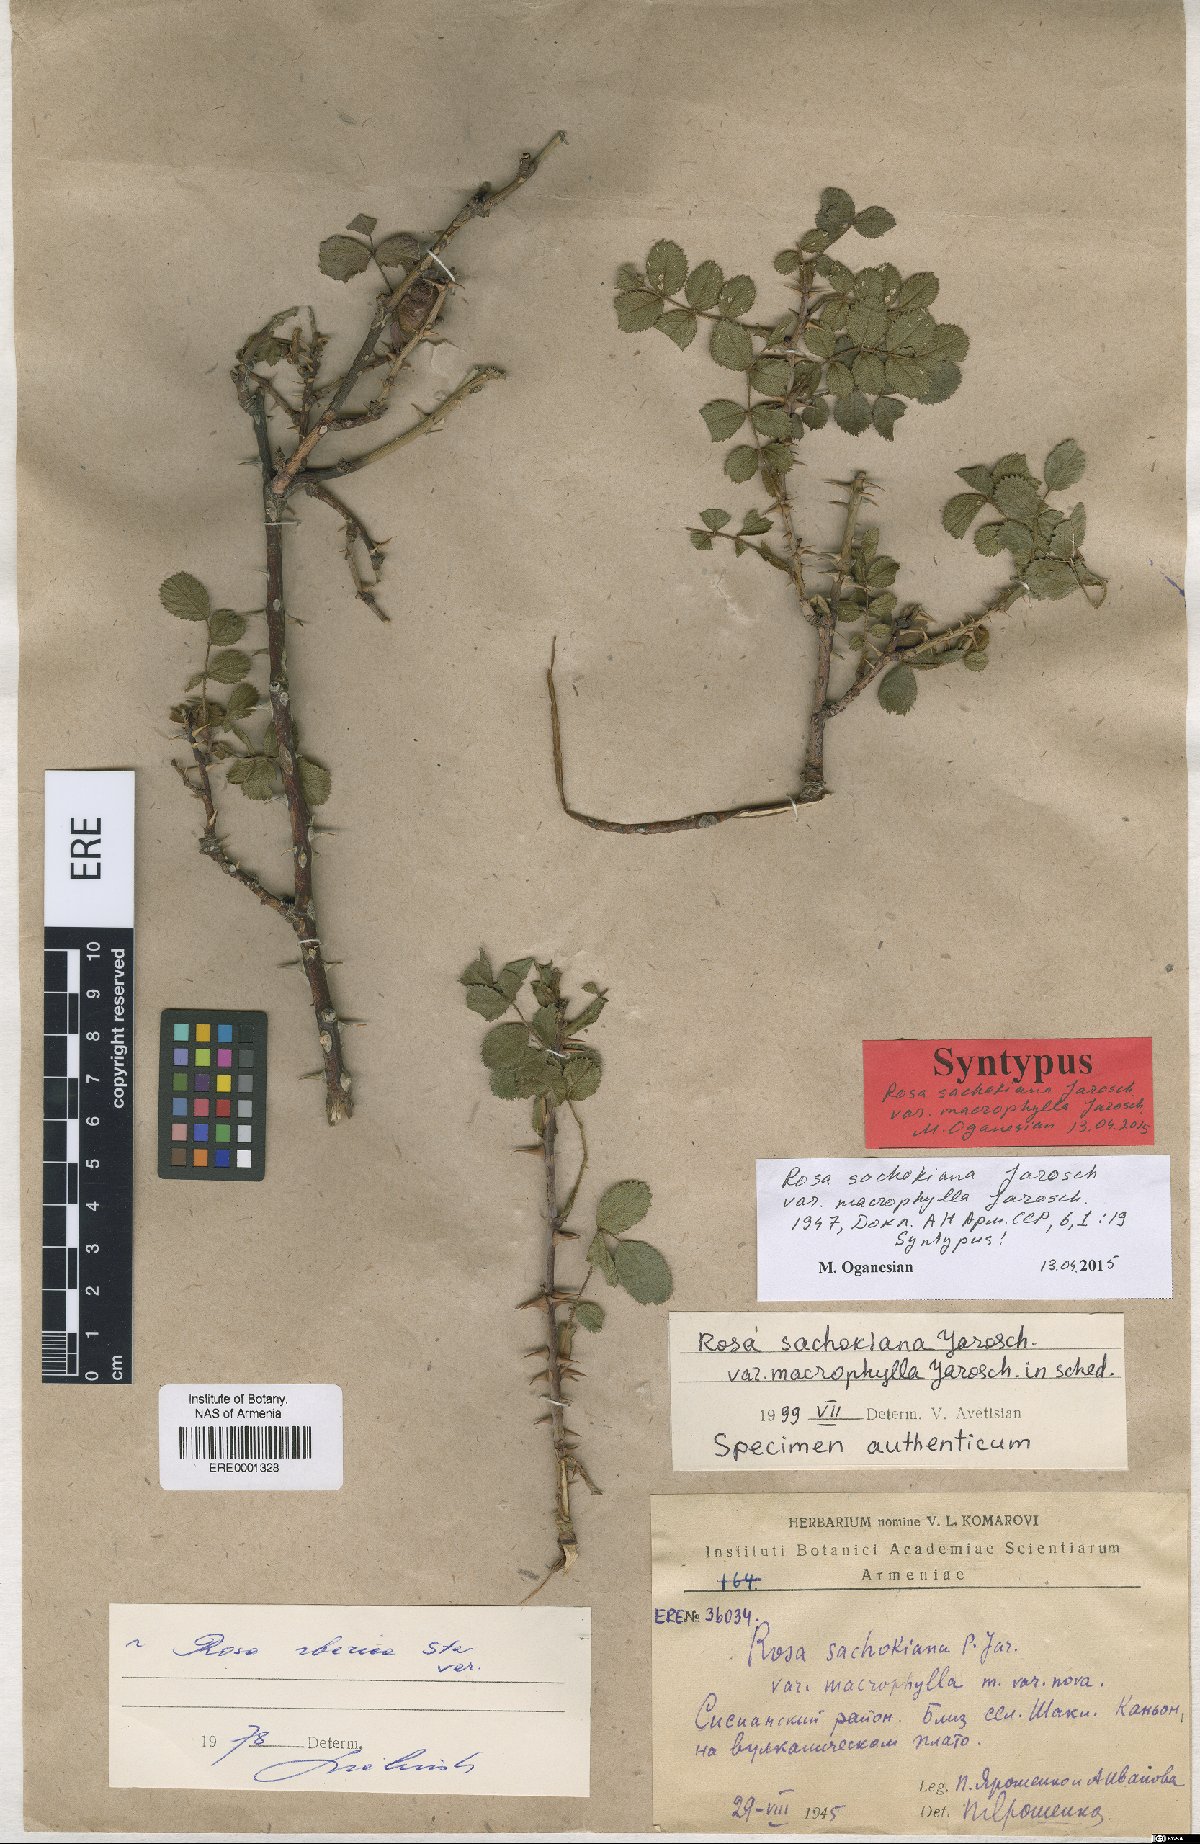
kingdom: Plantae
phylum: Tracheophyta
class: Magnoliopsida
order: Rosales
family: Rosaceae
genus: Rosa
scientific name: Rosa pulverulenta
